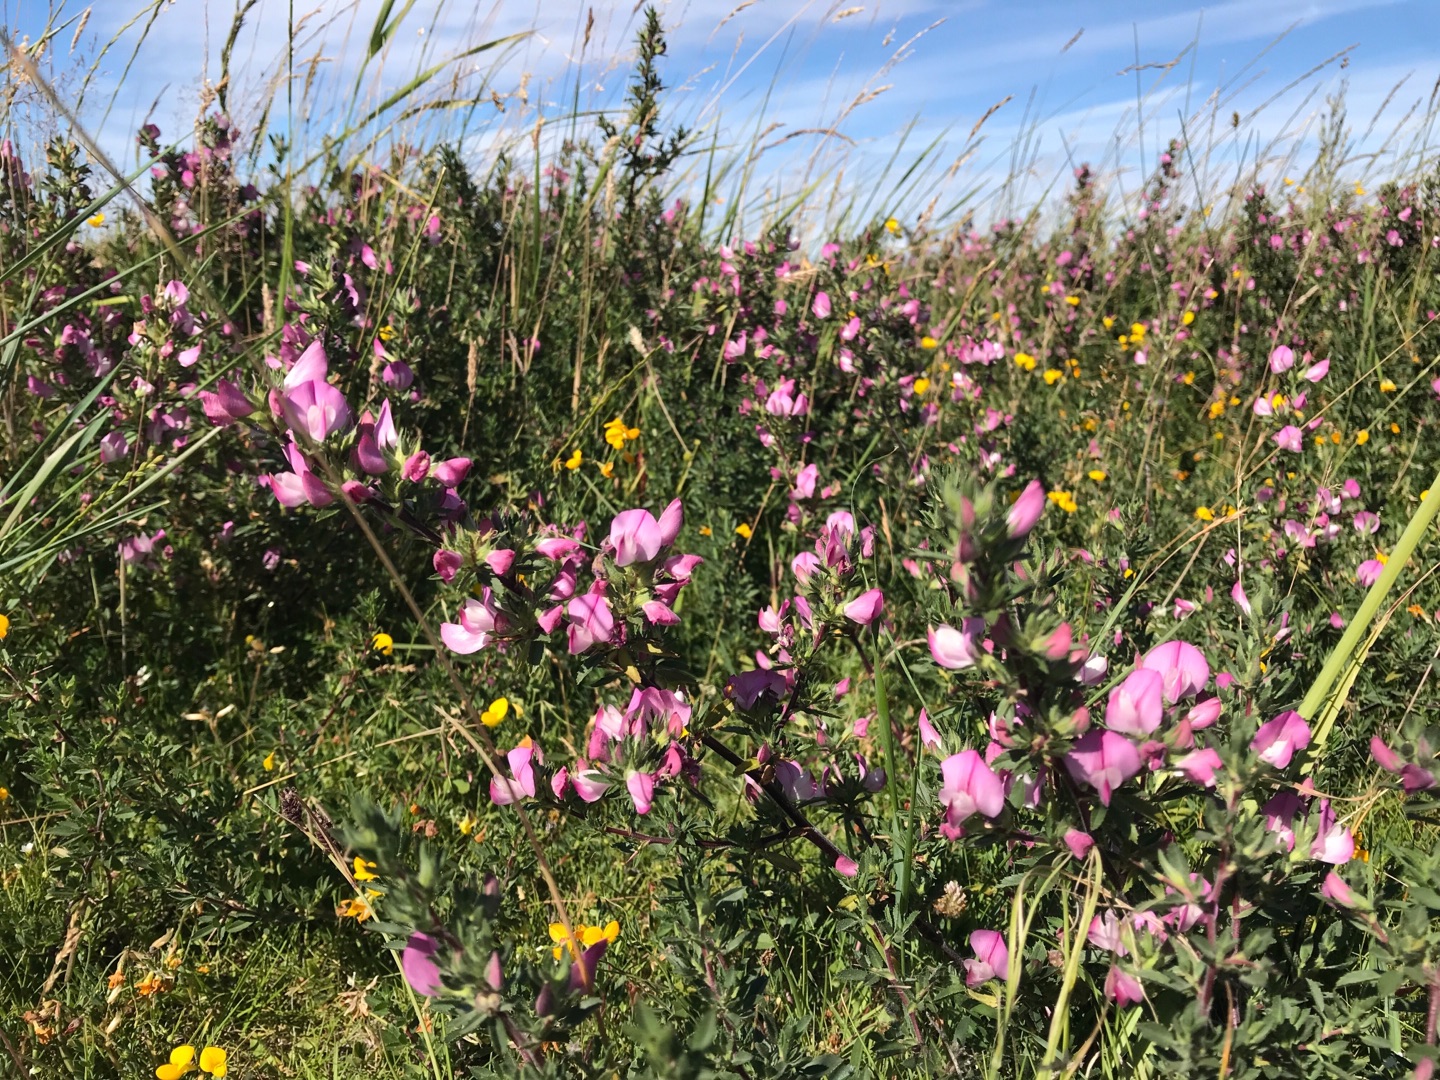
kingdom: Plantae
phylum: Tracheophyta
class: Magnoliopsida
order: Fabales
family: Fabaceae
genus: Ononis
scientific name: Ononis spinosa
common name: Strand-krageklo
